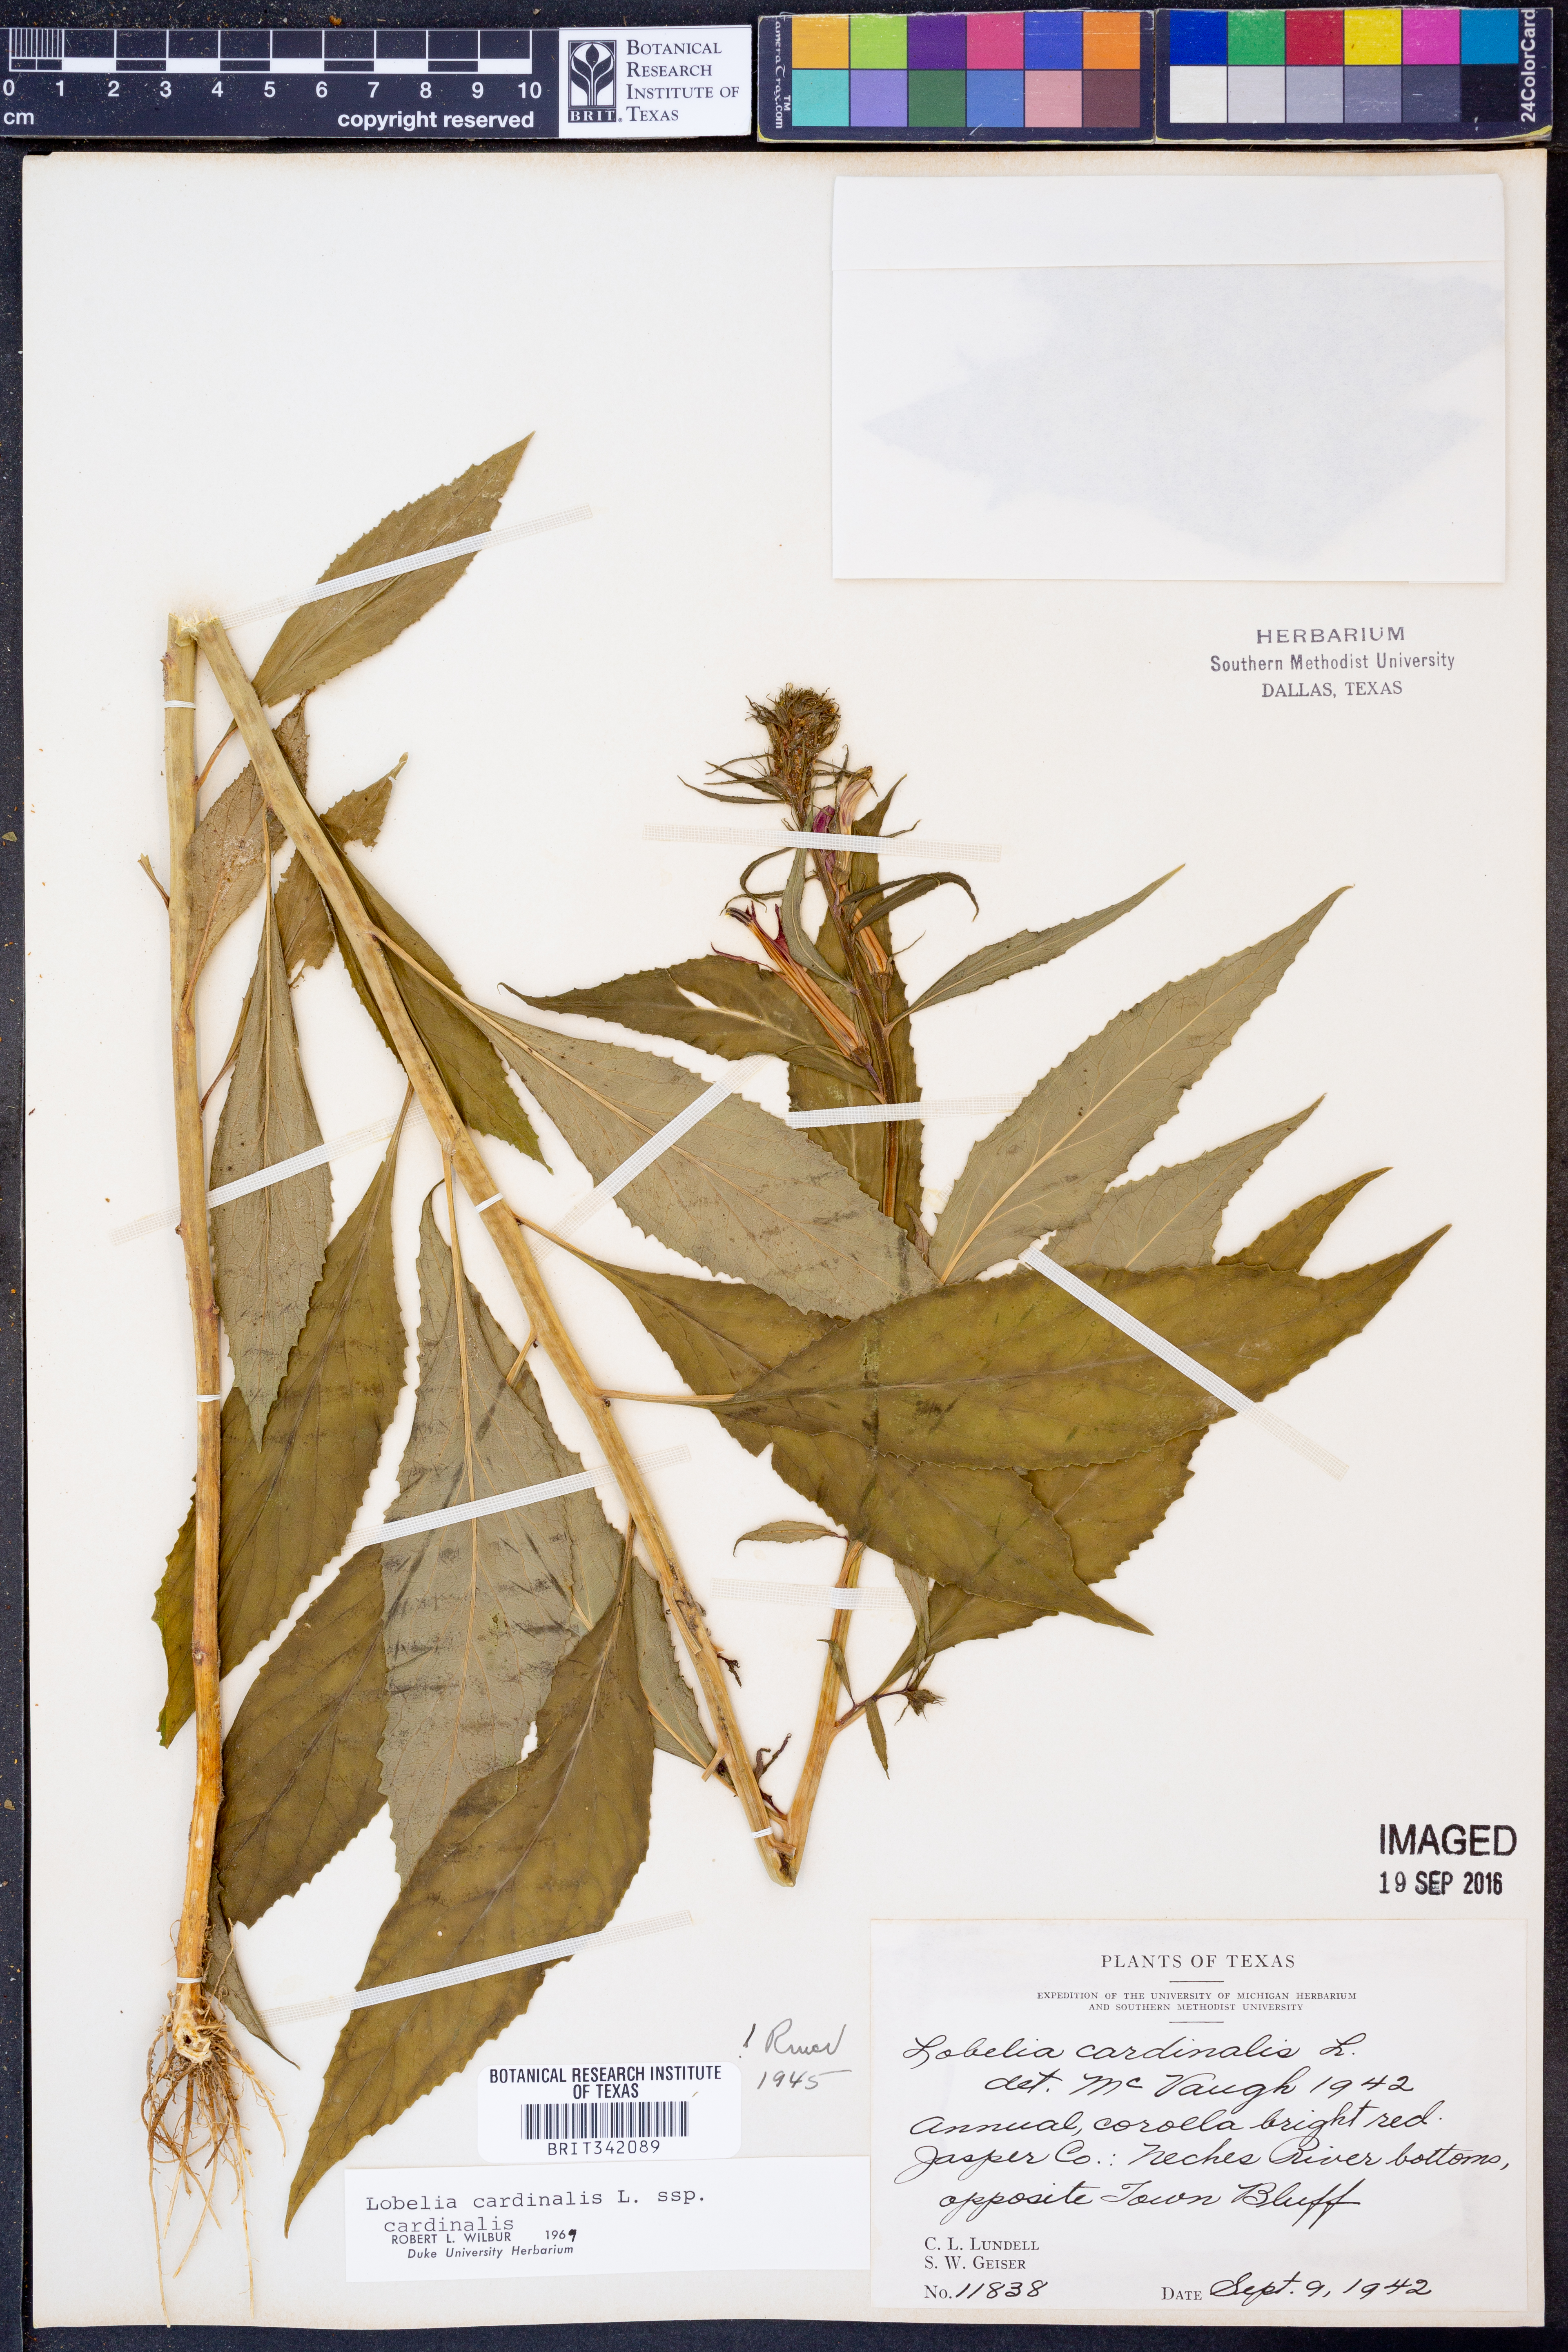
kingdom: Plantae
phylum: Tracheophyta
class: Magnoliopsida
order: Asterales
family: Campanulaceae
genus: Lobelia
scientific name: Lobelia cardinalis
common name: Cardinal flower
